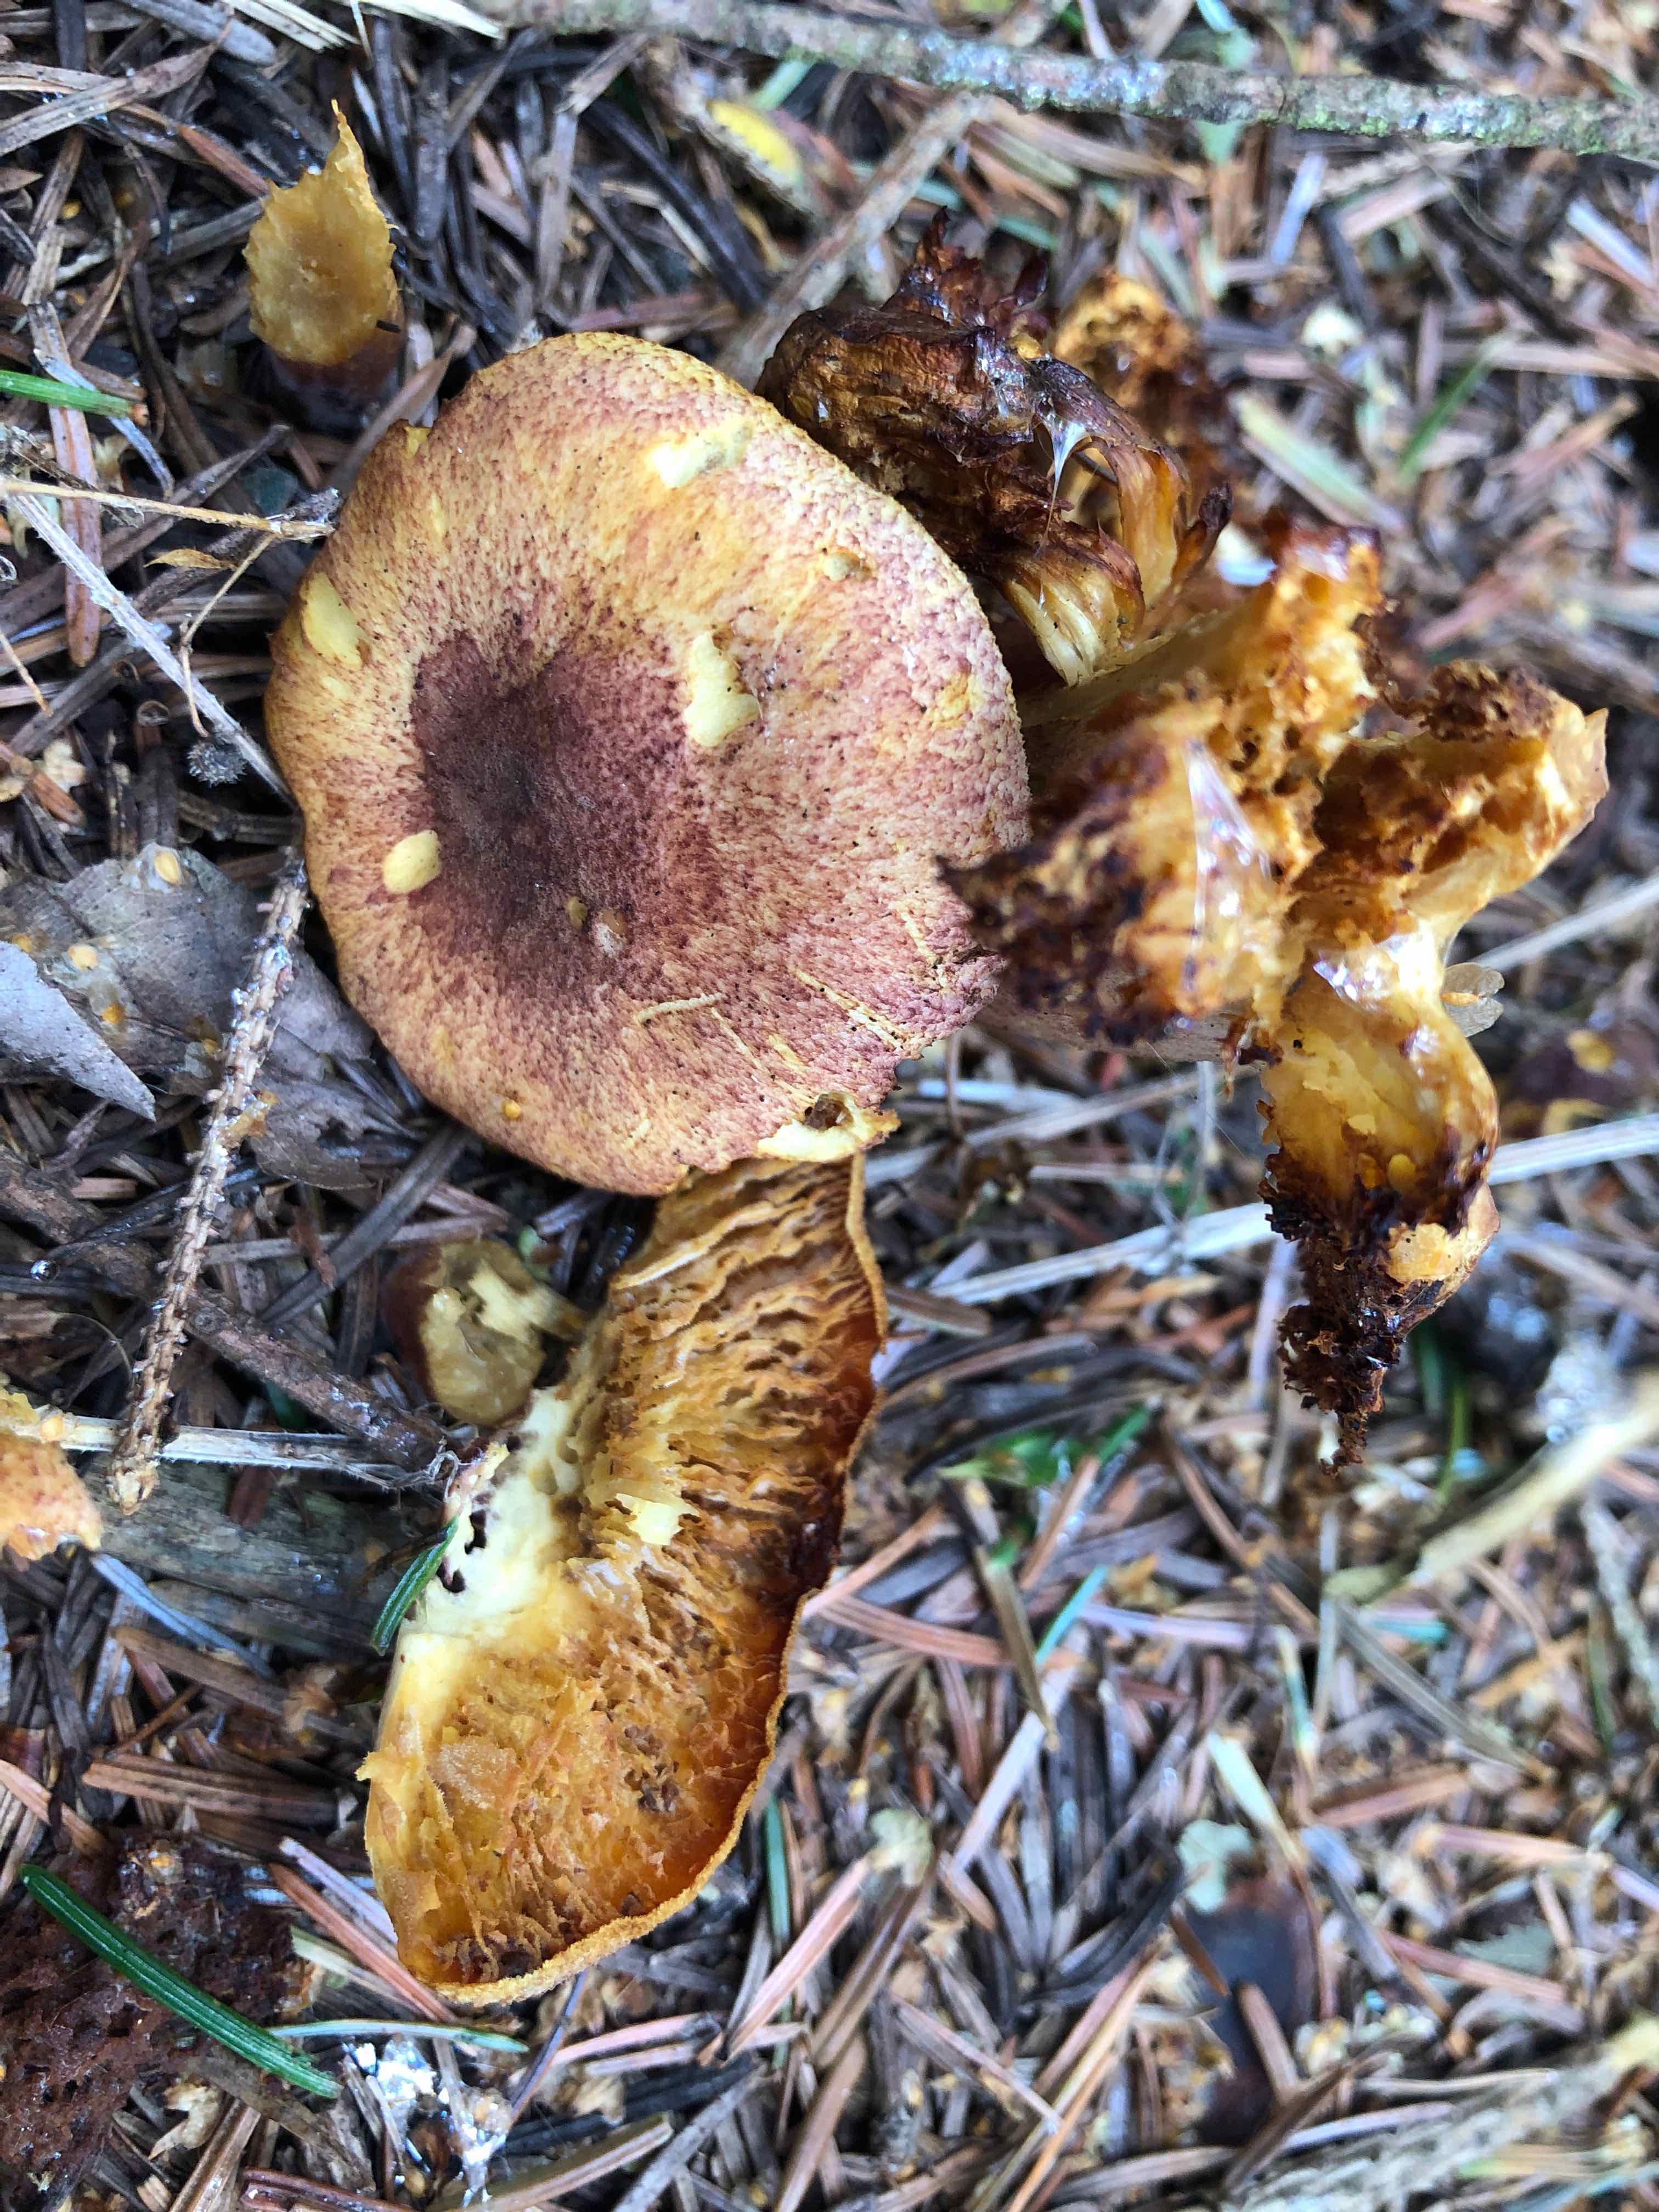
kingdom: Fungi
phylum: Basidiomycota
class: Agaricomycetes
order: Agaricales
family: Tricholomataceae
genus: Tricholomopsis
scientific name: Tricholomopsis rutilans
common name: purpur-væbnerhat
